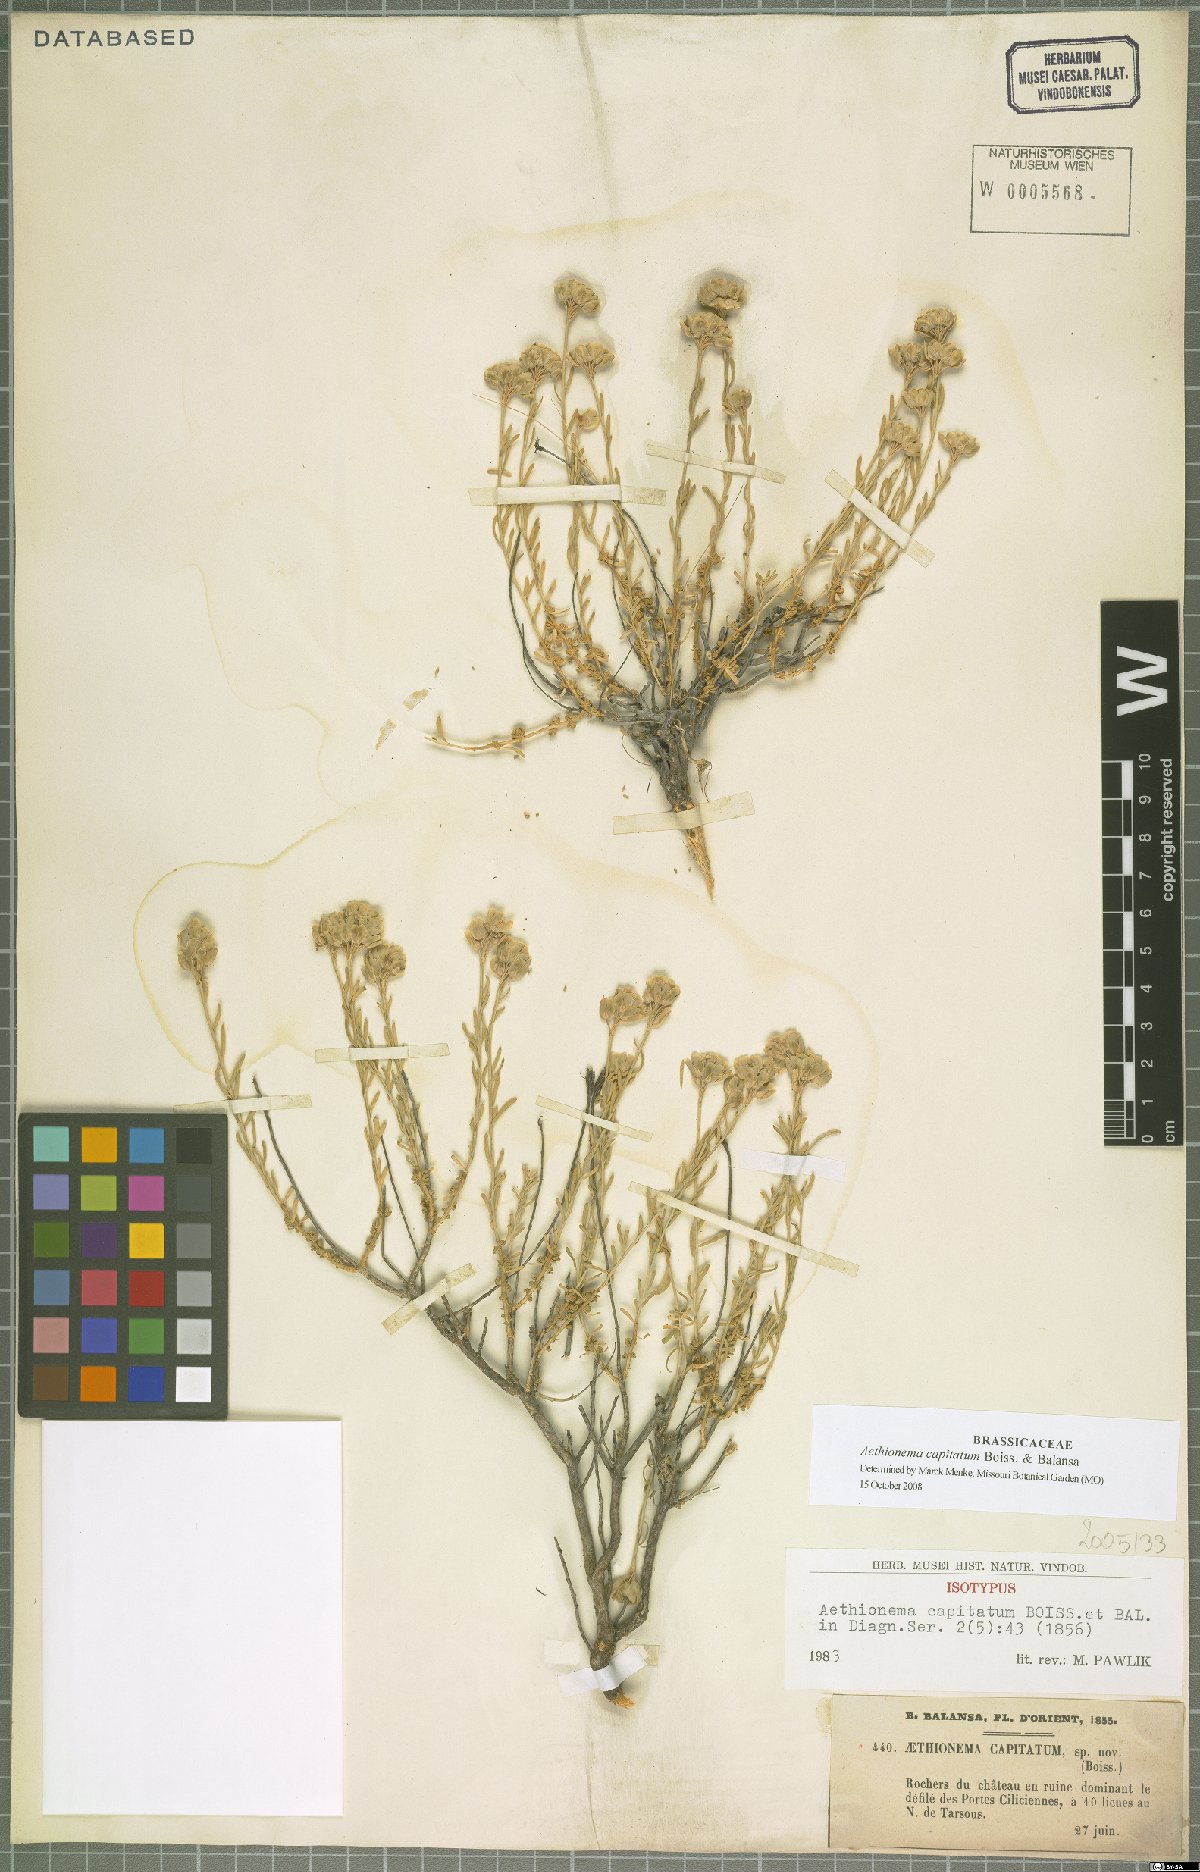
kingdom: Plantae
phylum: Tracheophyta
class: Magnoliopsida
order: Brassicales
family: Brassicaceae
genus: Aethionema
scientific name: Aethionema capitatum
